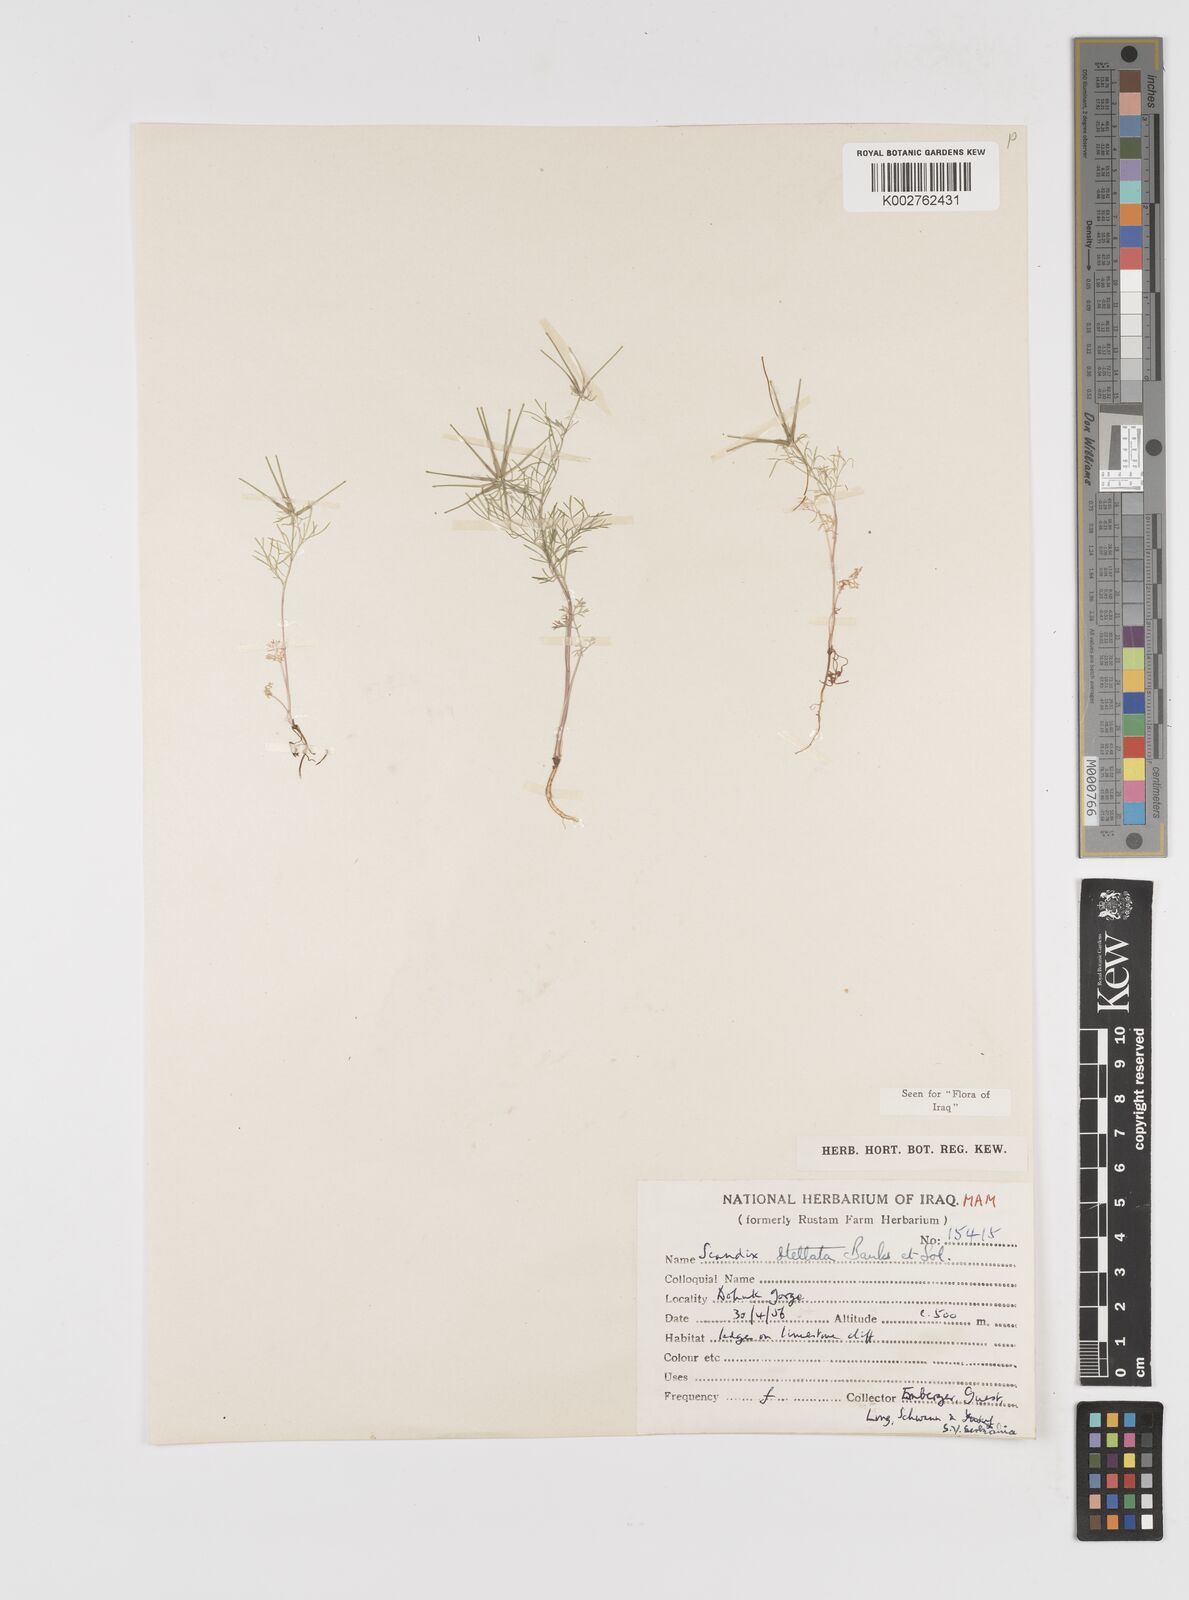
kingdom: Plantae
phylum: Tracheophyta
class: Magnoliopsida
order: Apiales
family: Apiaceae
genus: Scandix
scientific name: Scandix stellata
